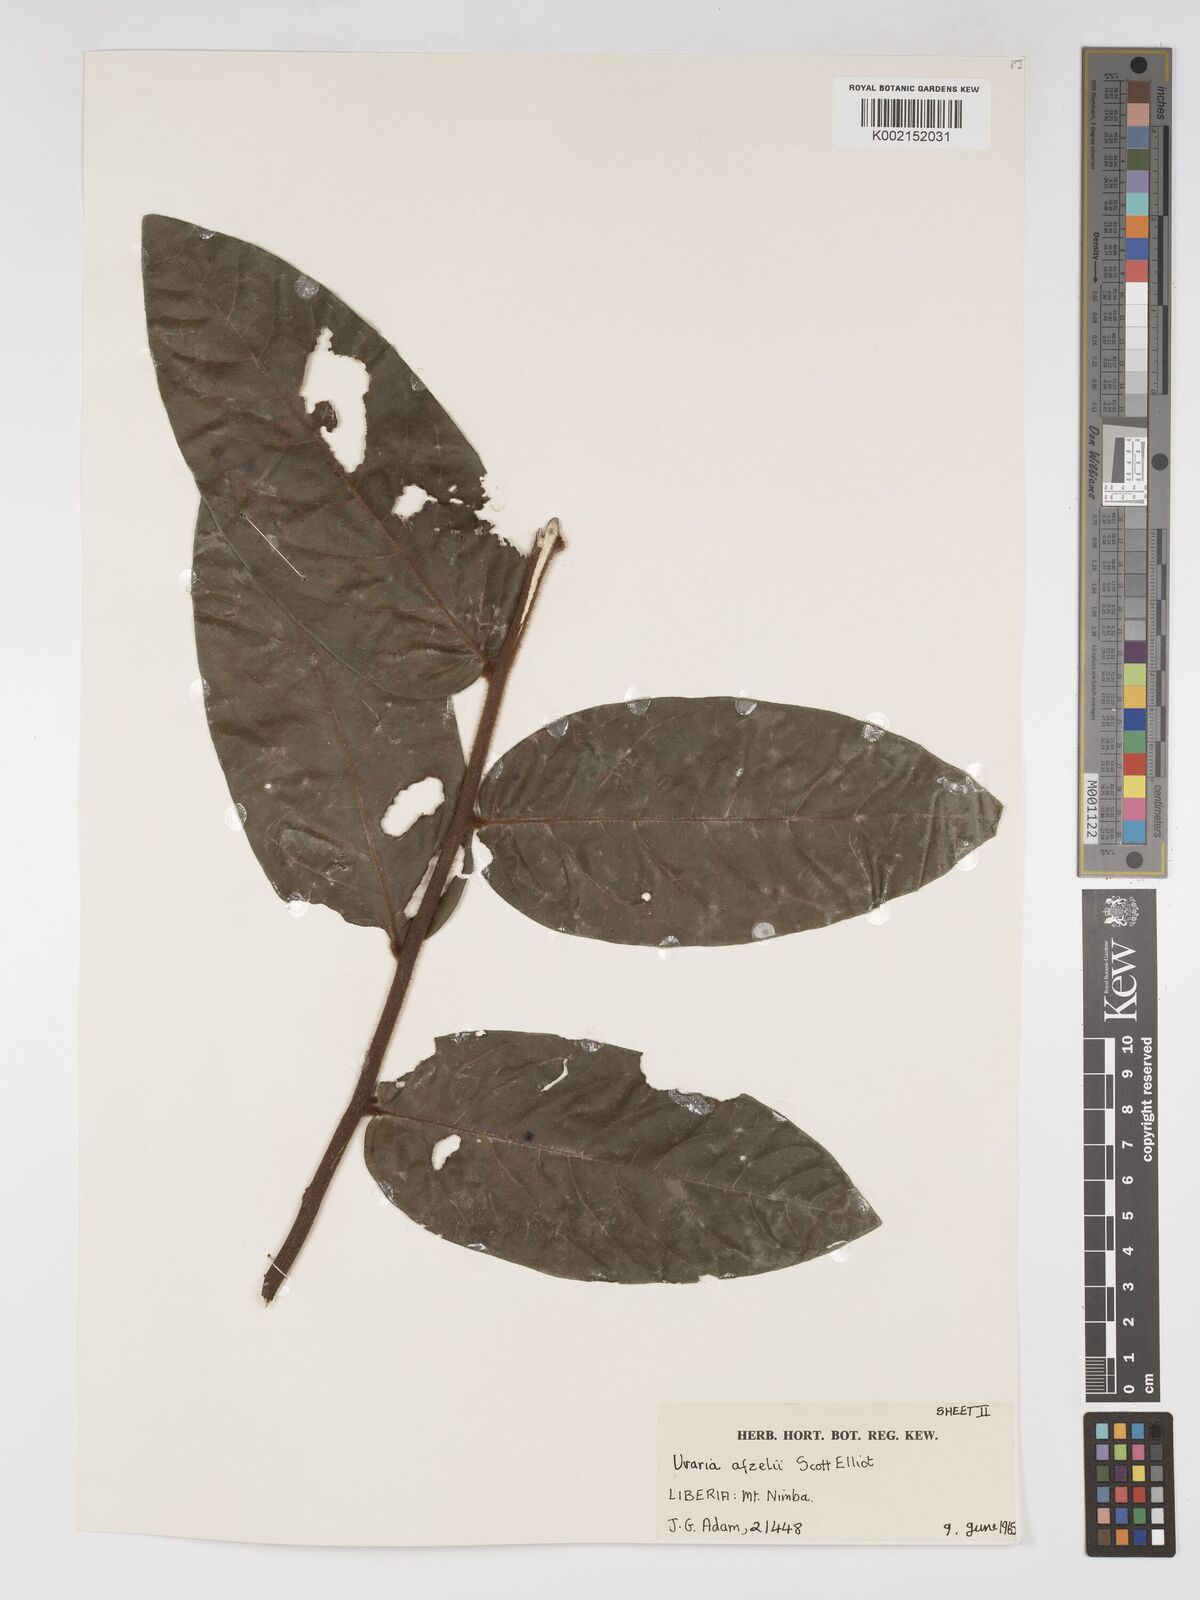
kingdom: Plantae
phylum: Tracheophyta
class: Magnoliopsida
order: Magnoliales
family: Annonaceae
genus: Uvaria
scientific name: Uvaria afzelii
